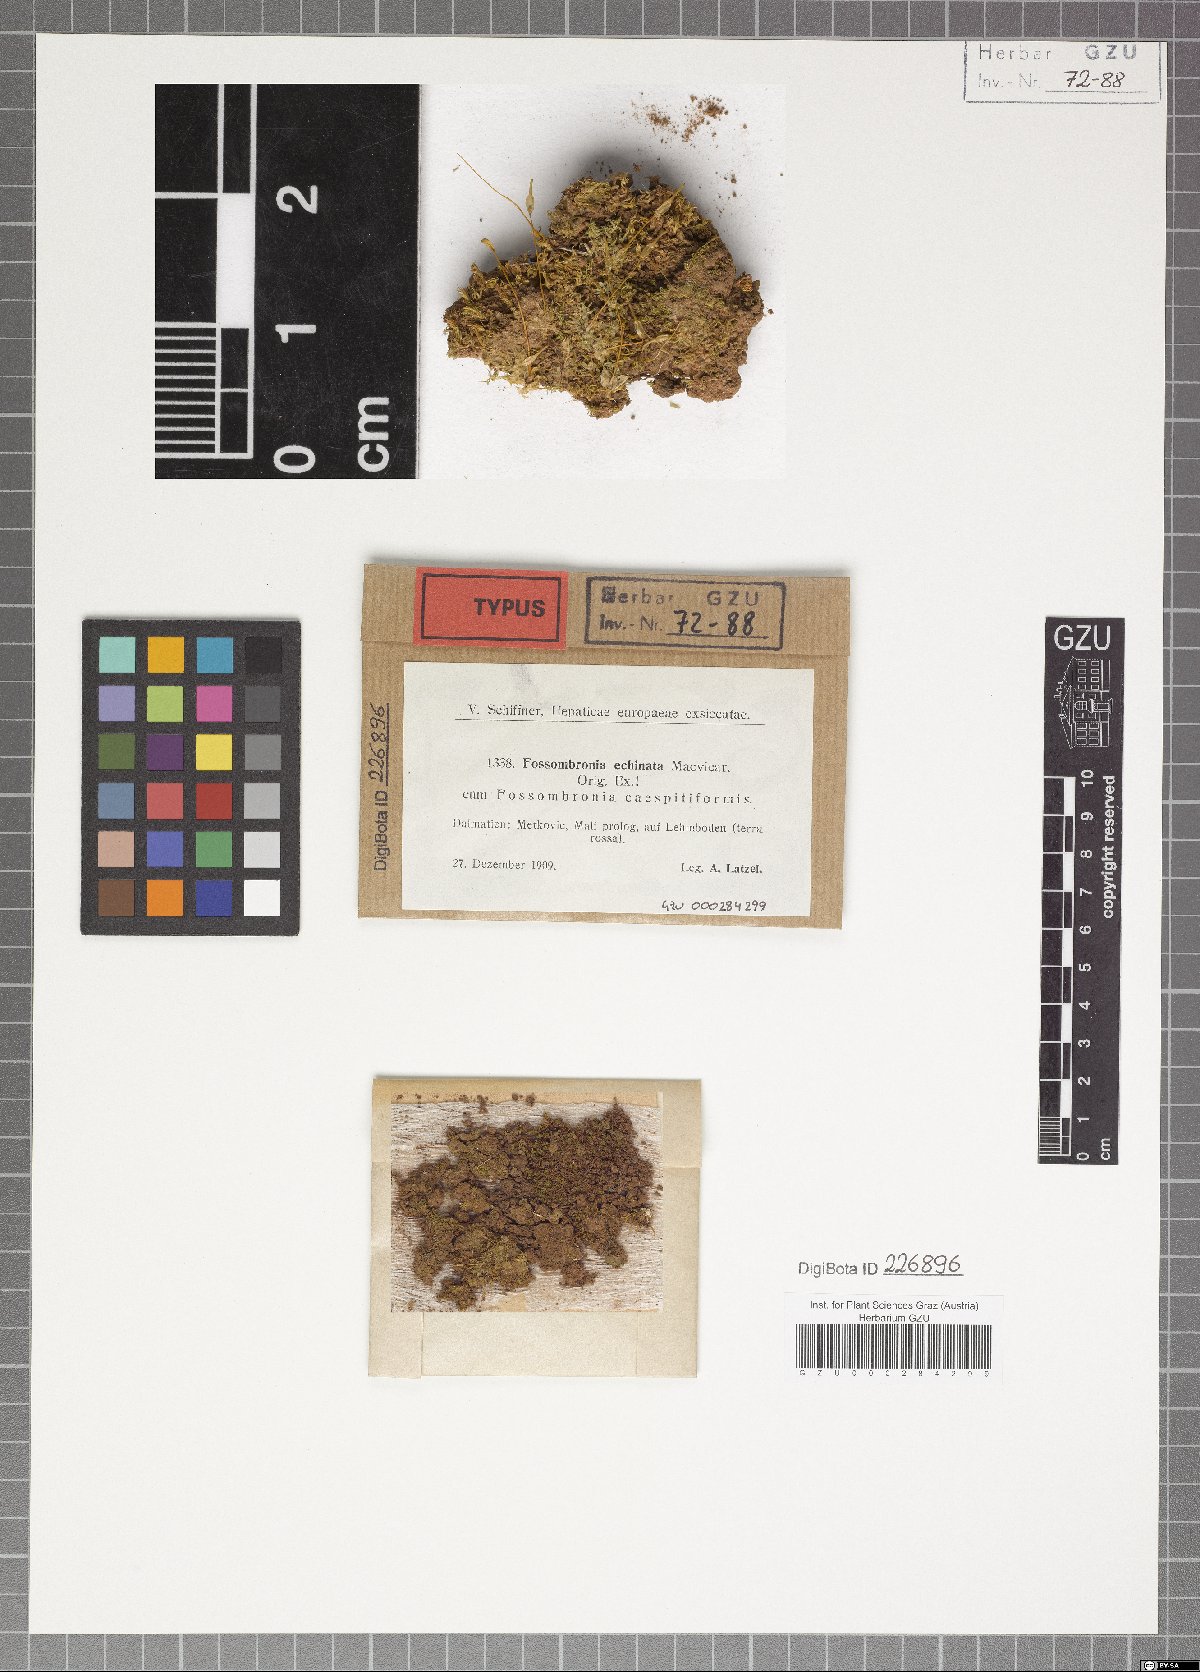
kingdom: Plantae
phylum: Marchantiophyta
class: Jungermanniopsida
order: Fossombroniales
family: Fossombroniaceae
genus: Fossombronia
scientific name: Fossombronia echinata
